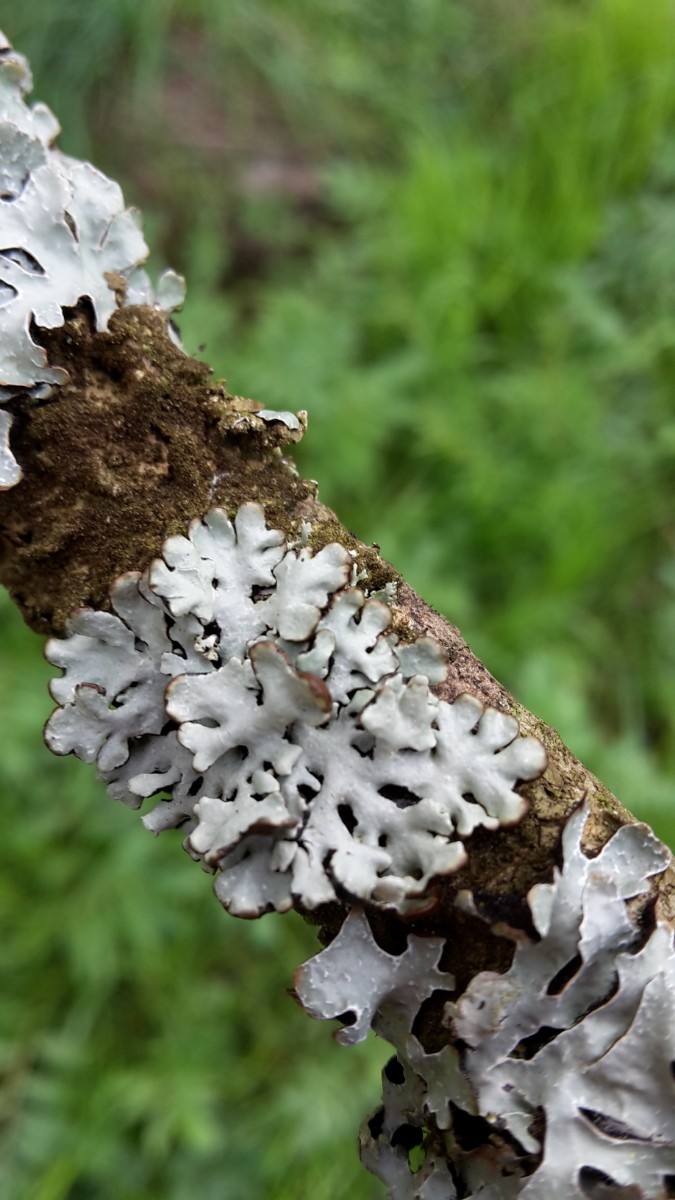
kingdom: Fungi
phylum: Ascomycota
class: Lecanoromycetes
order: Lecanorales
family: Parmeliaceae
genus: Hypogymnia
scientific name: Hypogymnia physodes
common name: almindelig kvistlav
